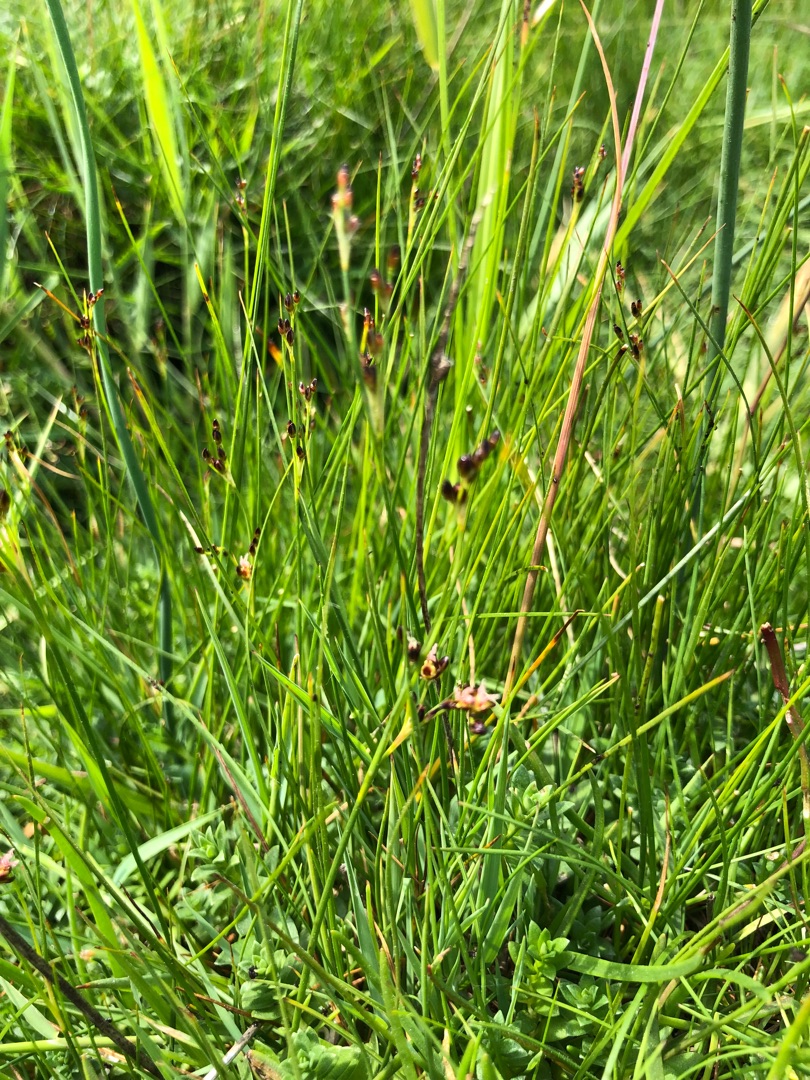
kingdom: Plantae
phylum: Tracheophyta
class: Liliopsida
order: Poales
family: Juncaceae
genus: Juncus
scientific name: Juncus gerardi
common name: Harril
